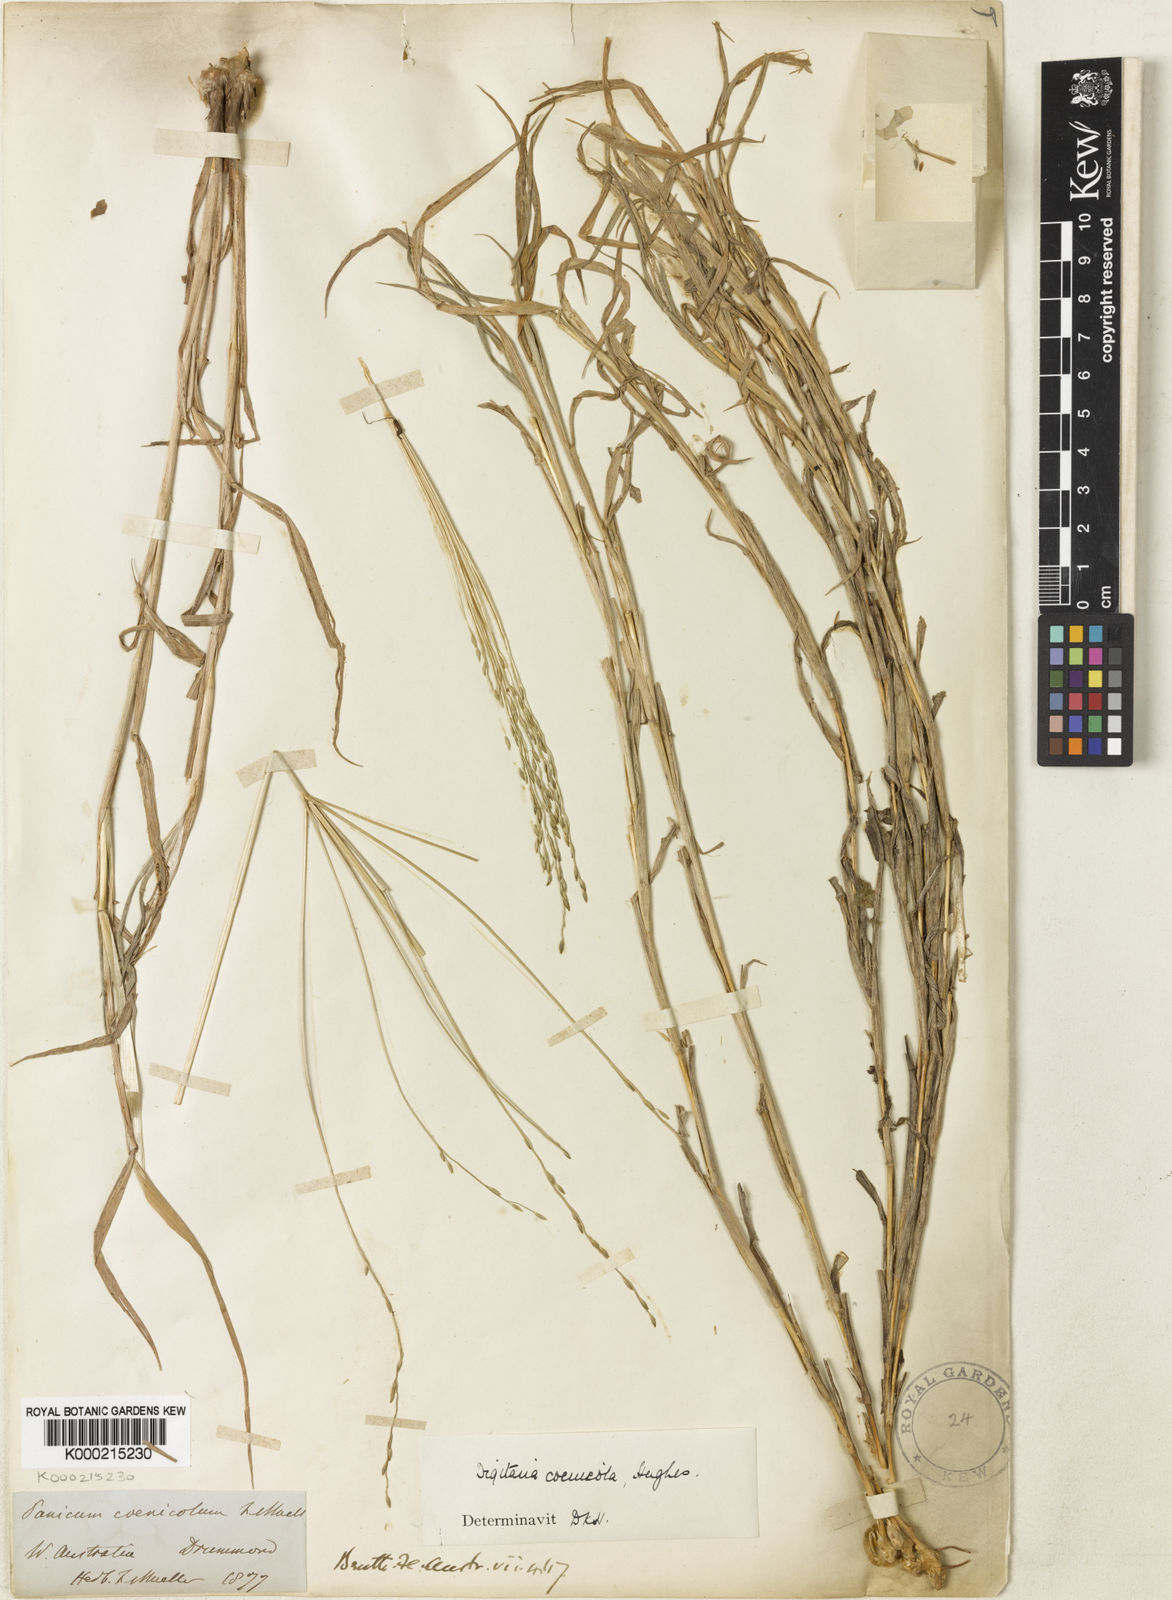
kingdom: Plantae
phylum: Tracheophyta
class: Liliopsida
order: Poales
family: Poaceae
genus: Digitaria
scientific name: Digitaria coenicola
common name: Kanta grass
